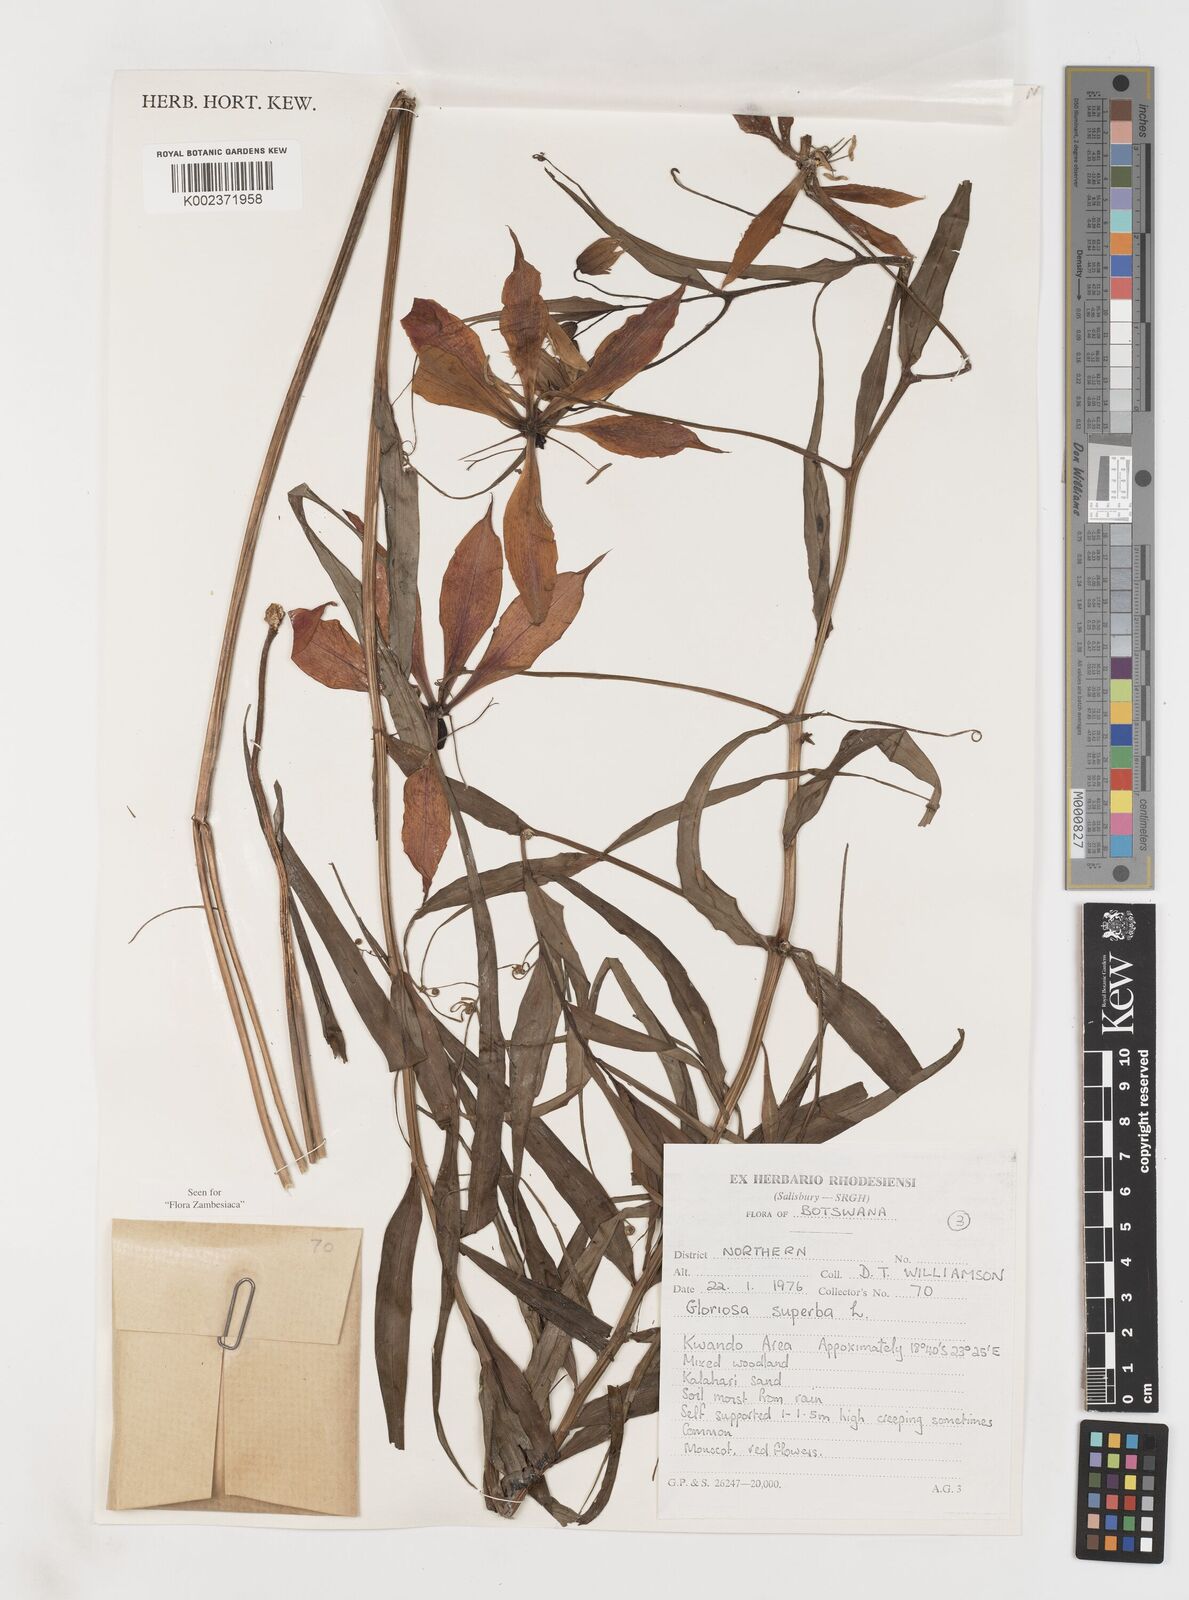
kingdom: Plantae
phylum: Tracheophyta
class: Liliopsida
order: Liliales
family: Colchicaceae
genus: Gloriosa
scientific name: Gloriosa simplex
